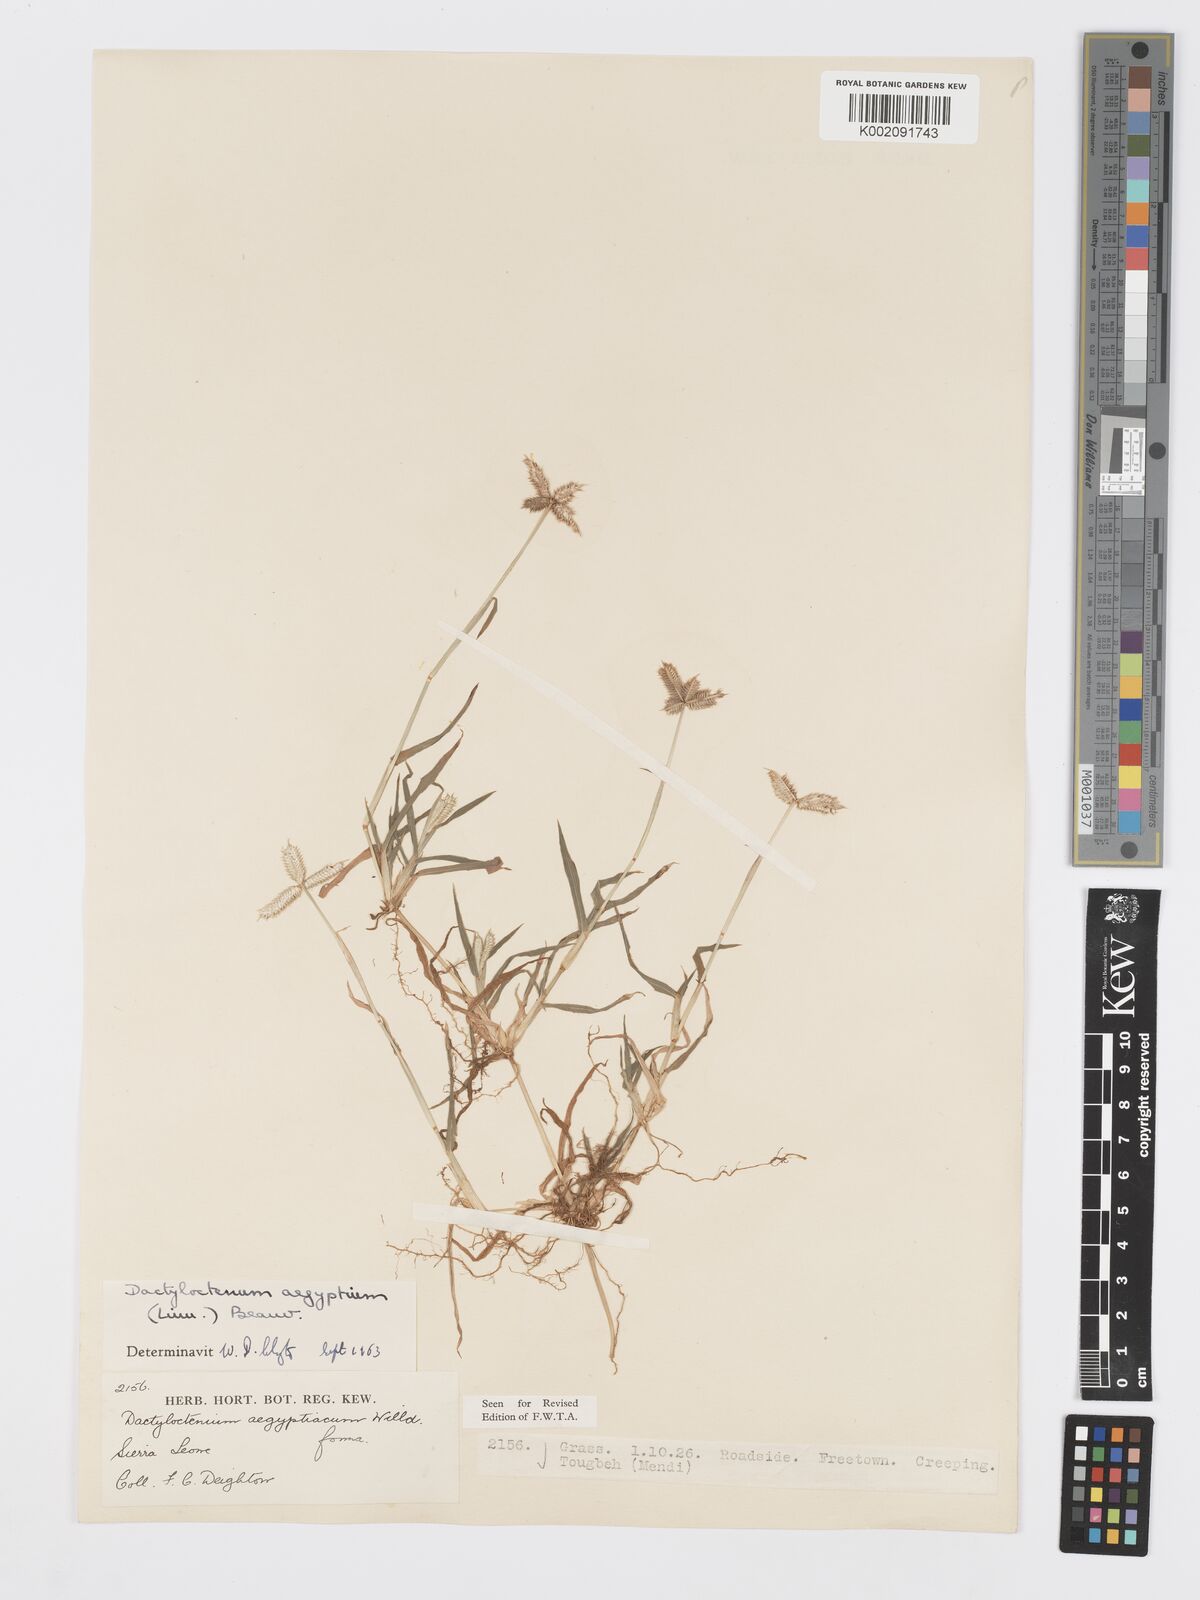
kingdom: Plantae
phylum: Tracheophyta
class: Liliopsida
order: Poales
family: Poaceae
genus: Dactyloctenium
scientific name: Dactyloctenium aegyptium
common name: Egyptian grass
